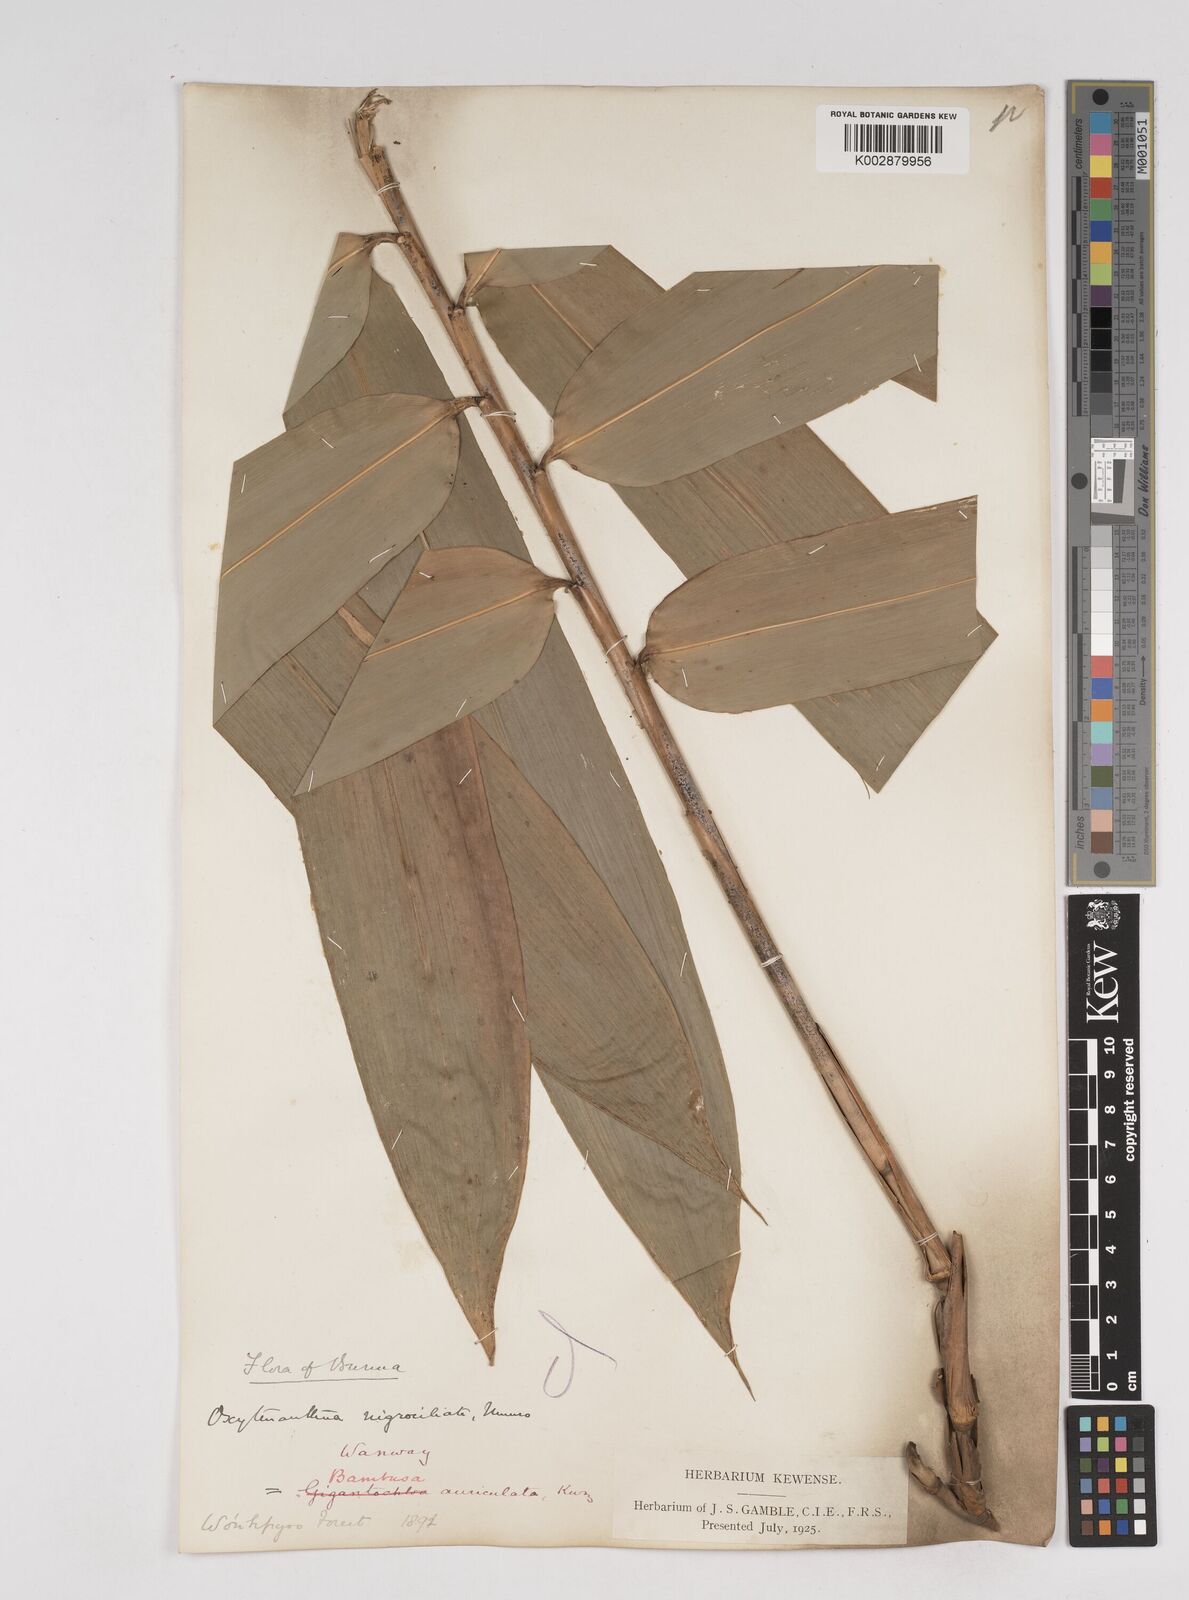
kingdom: Plantae
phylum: Tracheophyta
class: Liliopsida
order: Poales
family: Poaceae
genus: Gigantochloa
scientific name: Gigantochloa nigrociliata
